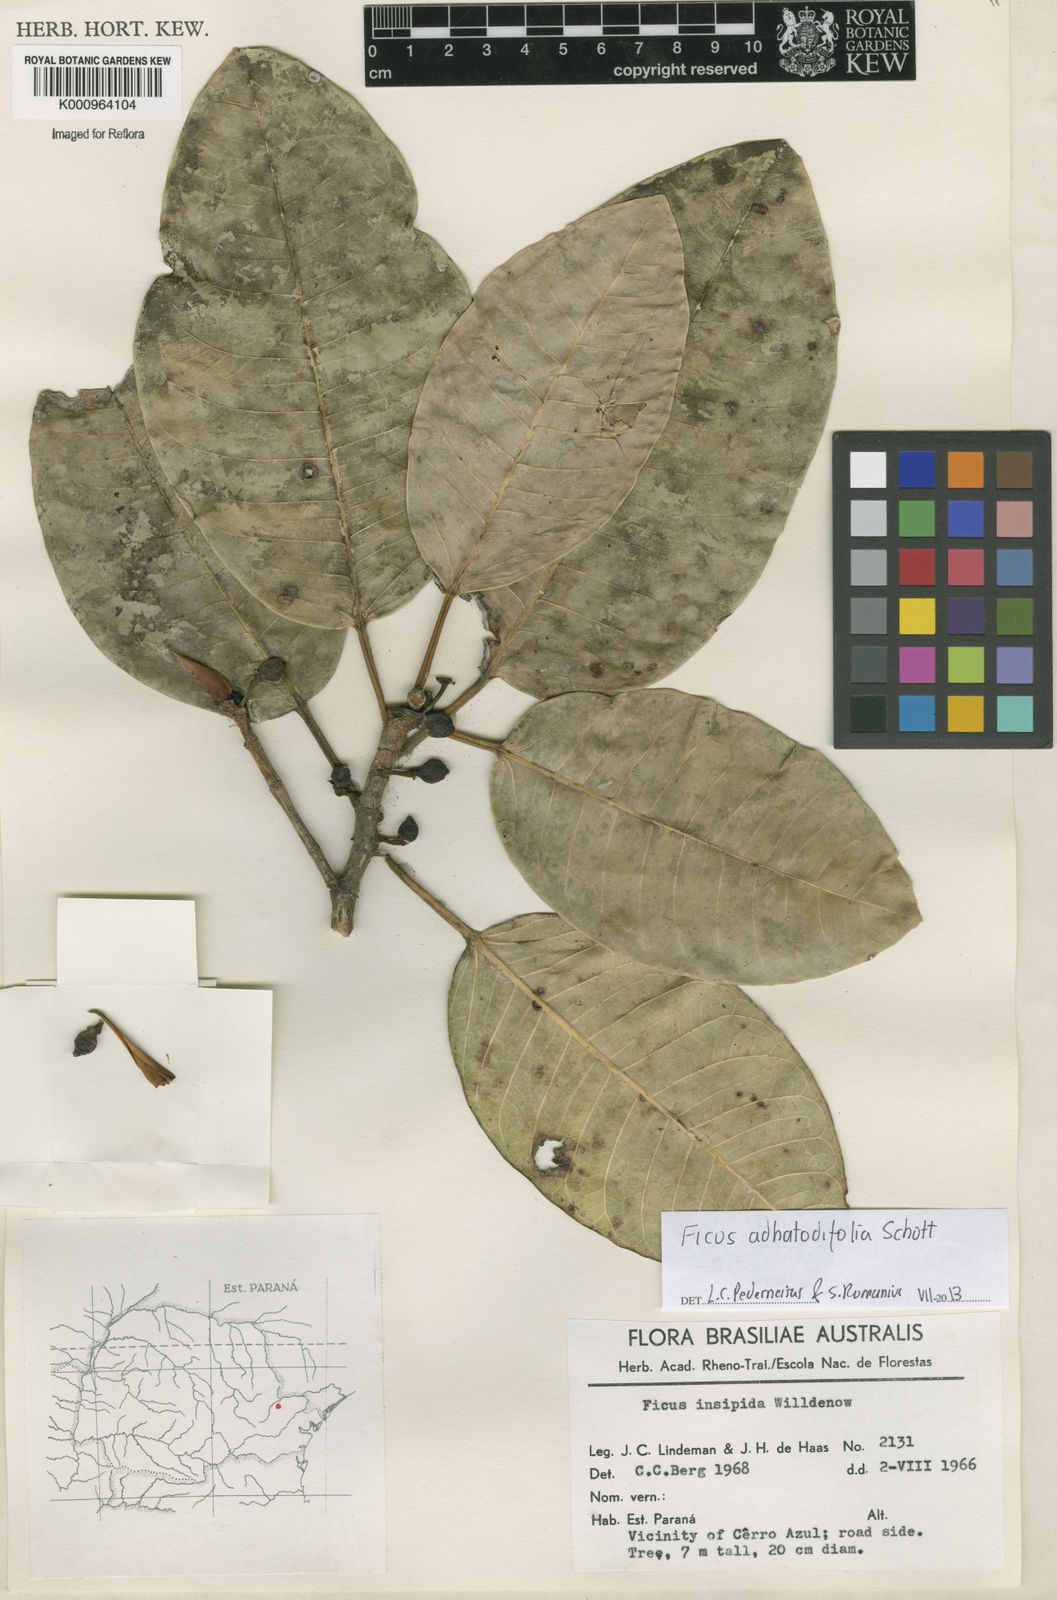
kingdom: Plantae
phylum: Tracheophyta
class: Magnoliopsida
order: Rosales
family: Moraceae
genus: Ficus
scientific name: Ficus
